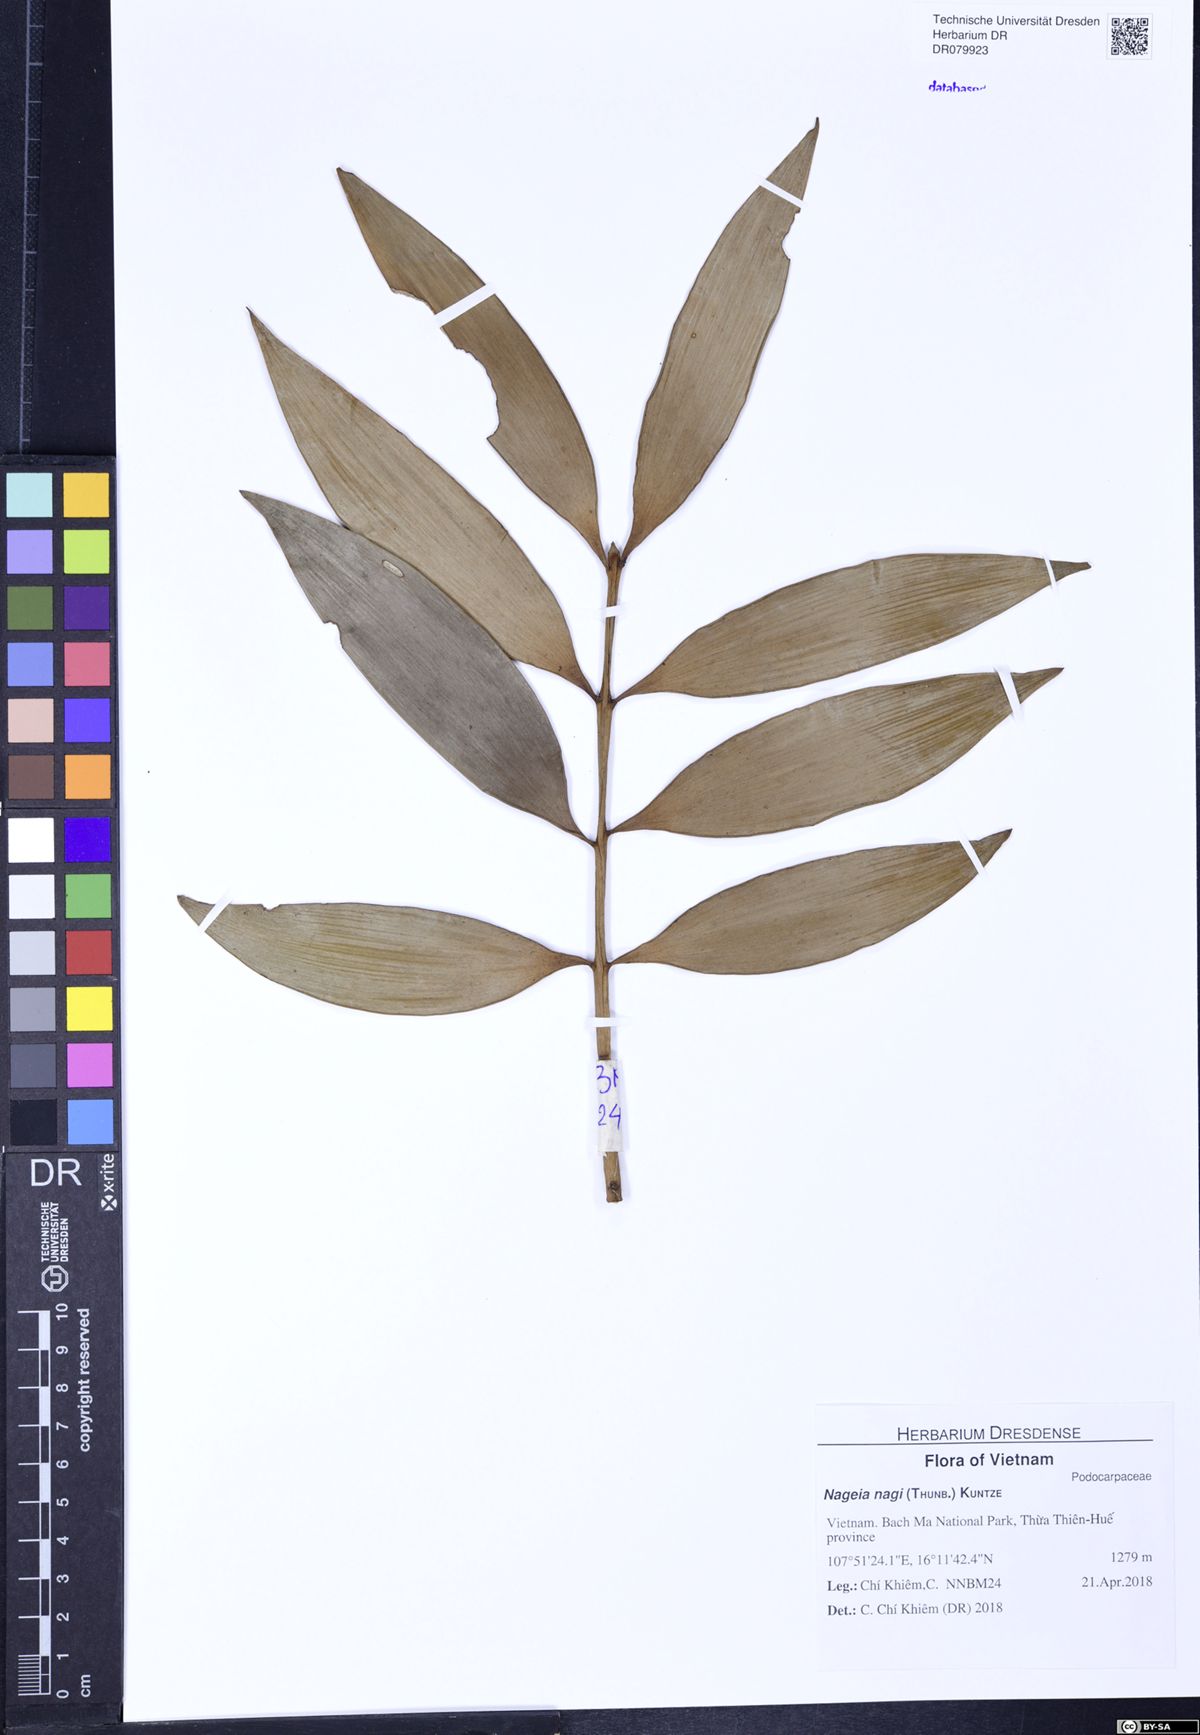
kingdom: Plantae
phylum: Tracheophyta
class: Pinopsida
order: Pinales
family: Podocarpaceae
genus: Nageia
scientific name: Nageia nagi
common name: Kaphal
